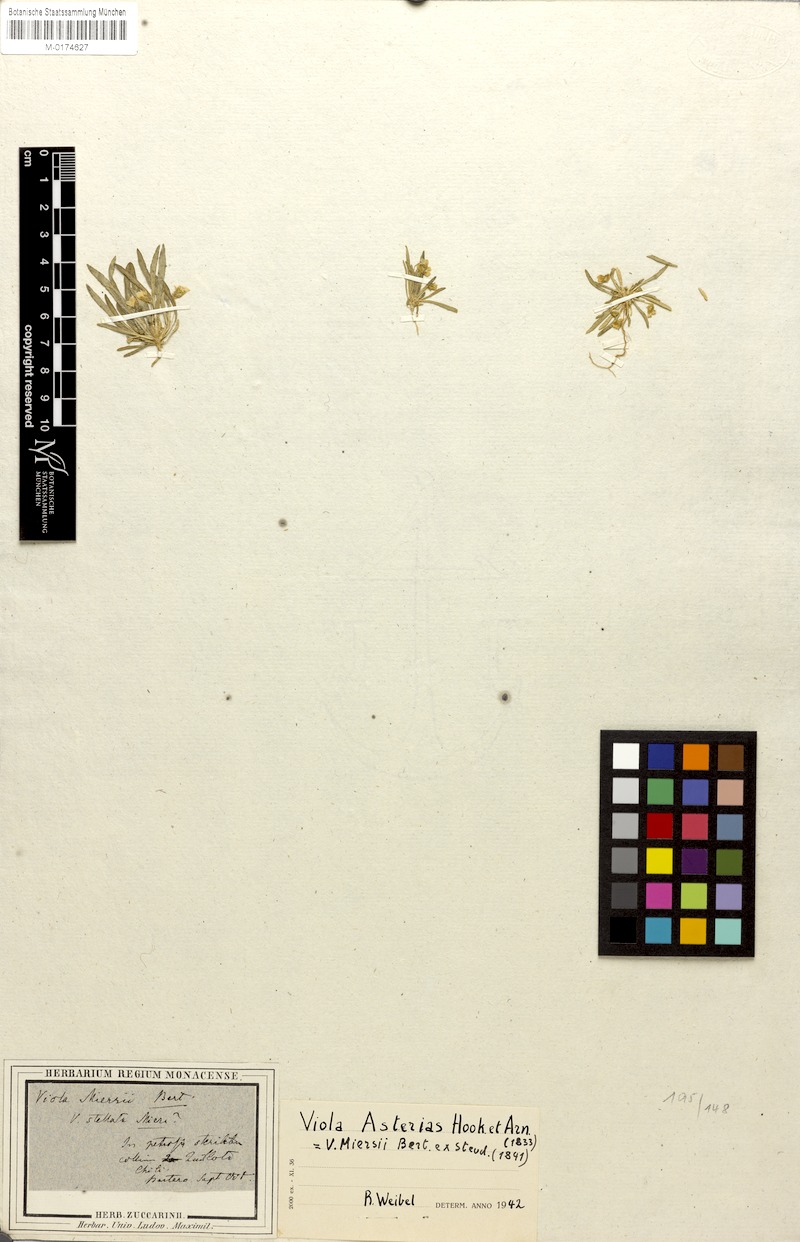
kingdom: Plantae
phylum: Tracheophyta
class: Magnoliopsida
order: Malpighiales
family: Violaceae
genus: Viola
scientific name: Viola pusilla
